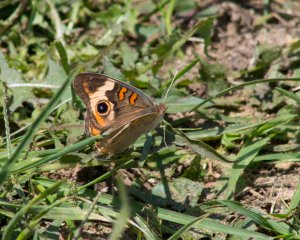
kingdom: Animalia
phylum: Arthropoda
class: Insecta
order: Lepidoptera
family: Nymphalidae
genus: Junonia
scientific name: Junonia coenia
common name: Common Buckeye
